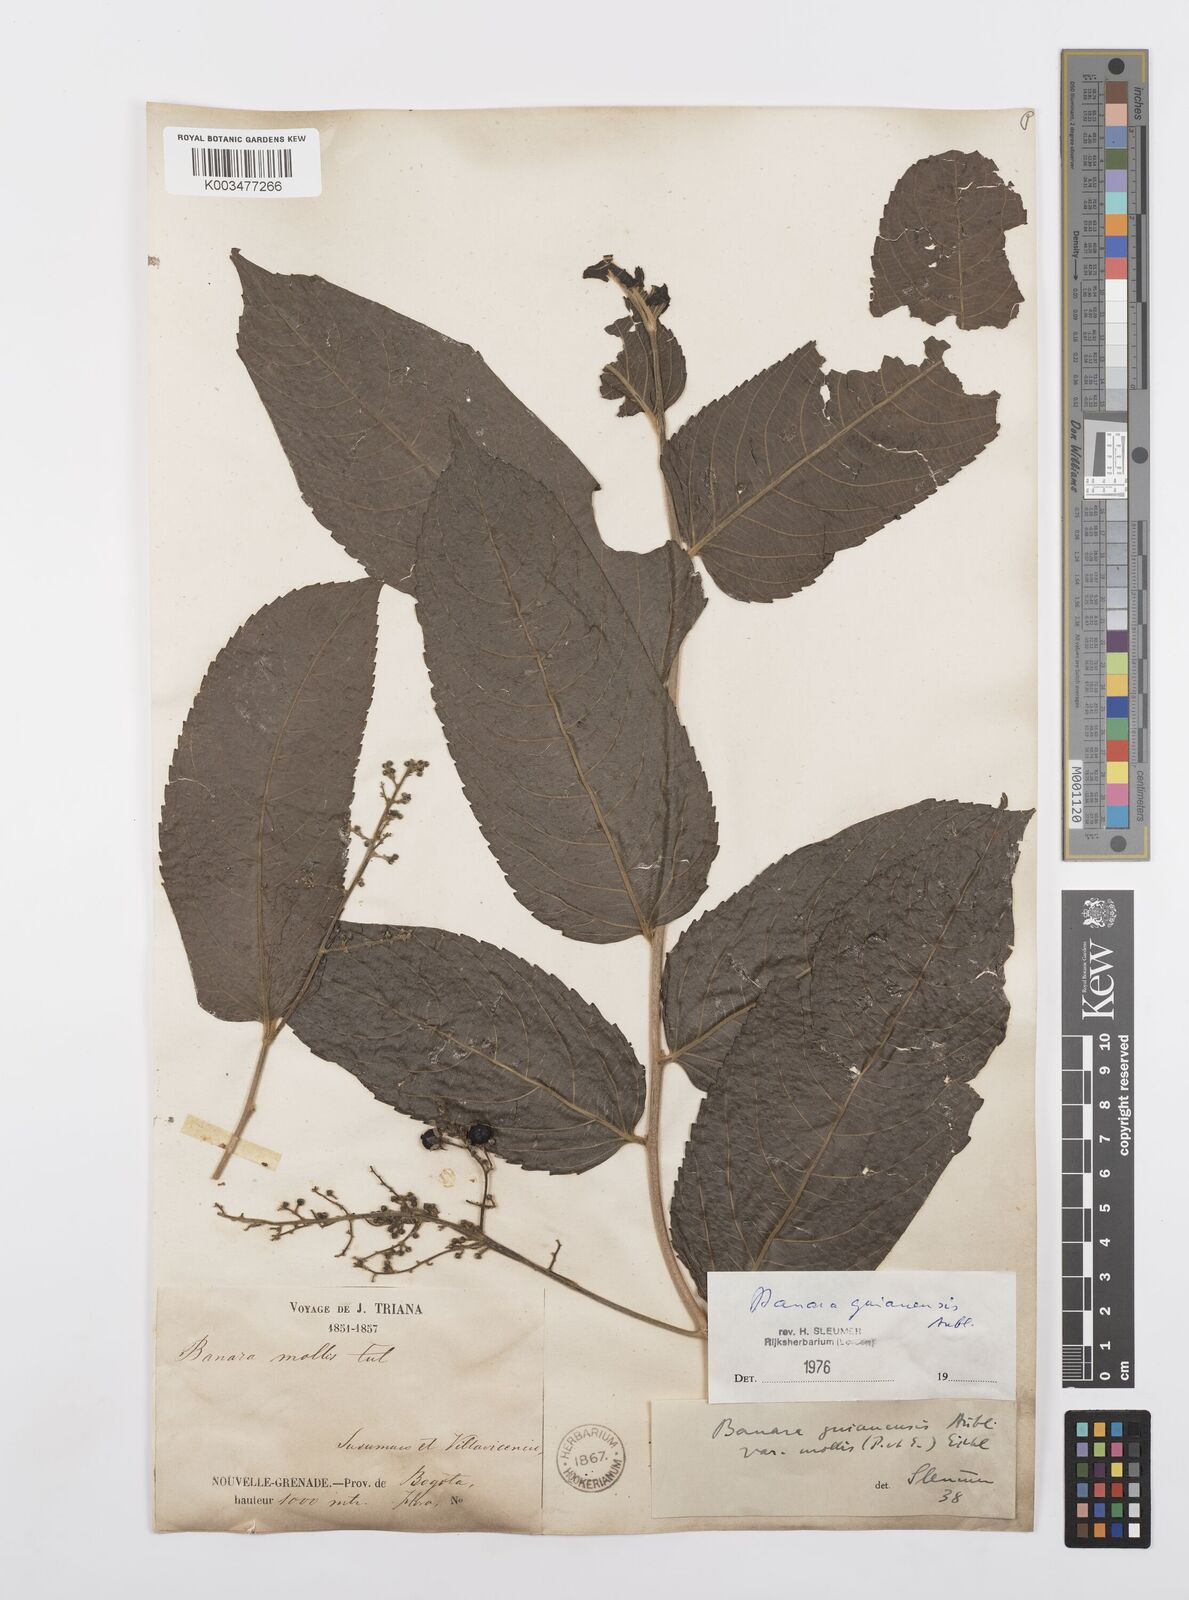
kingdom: Plantae
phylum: Tracheophyta
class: Magnoliopsida
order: Malpighiales
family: Salicaceae
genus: Banara
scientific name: Banara guianensis
